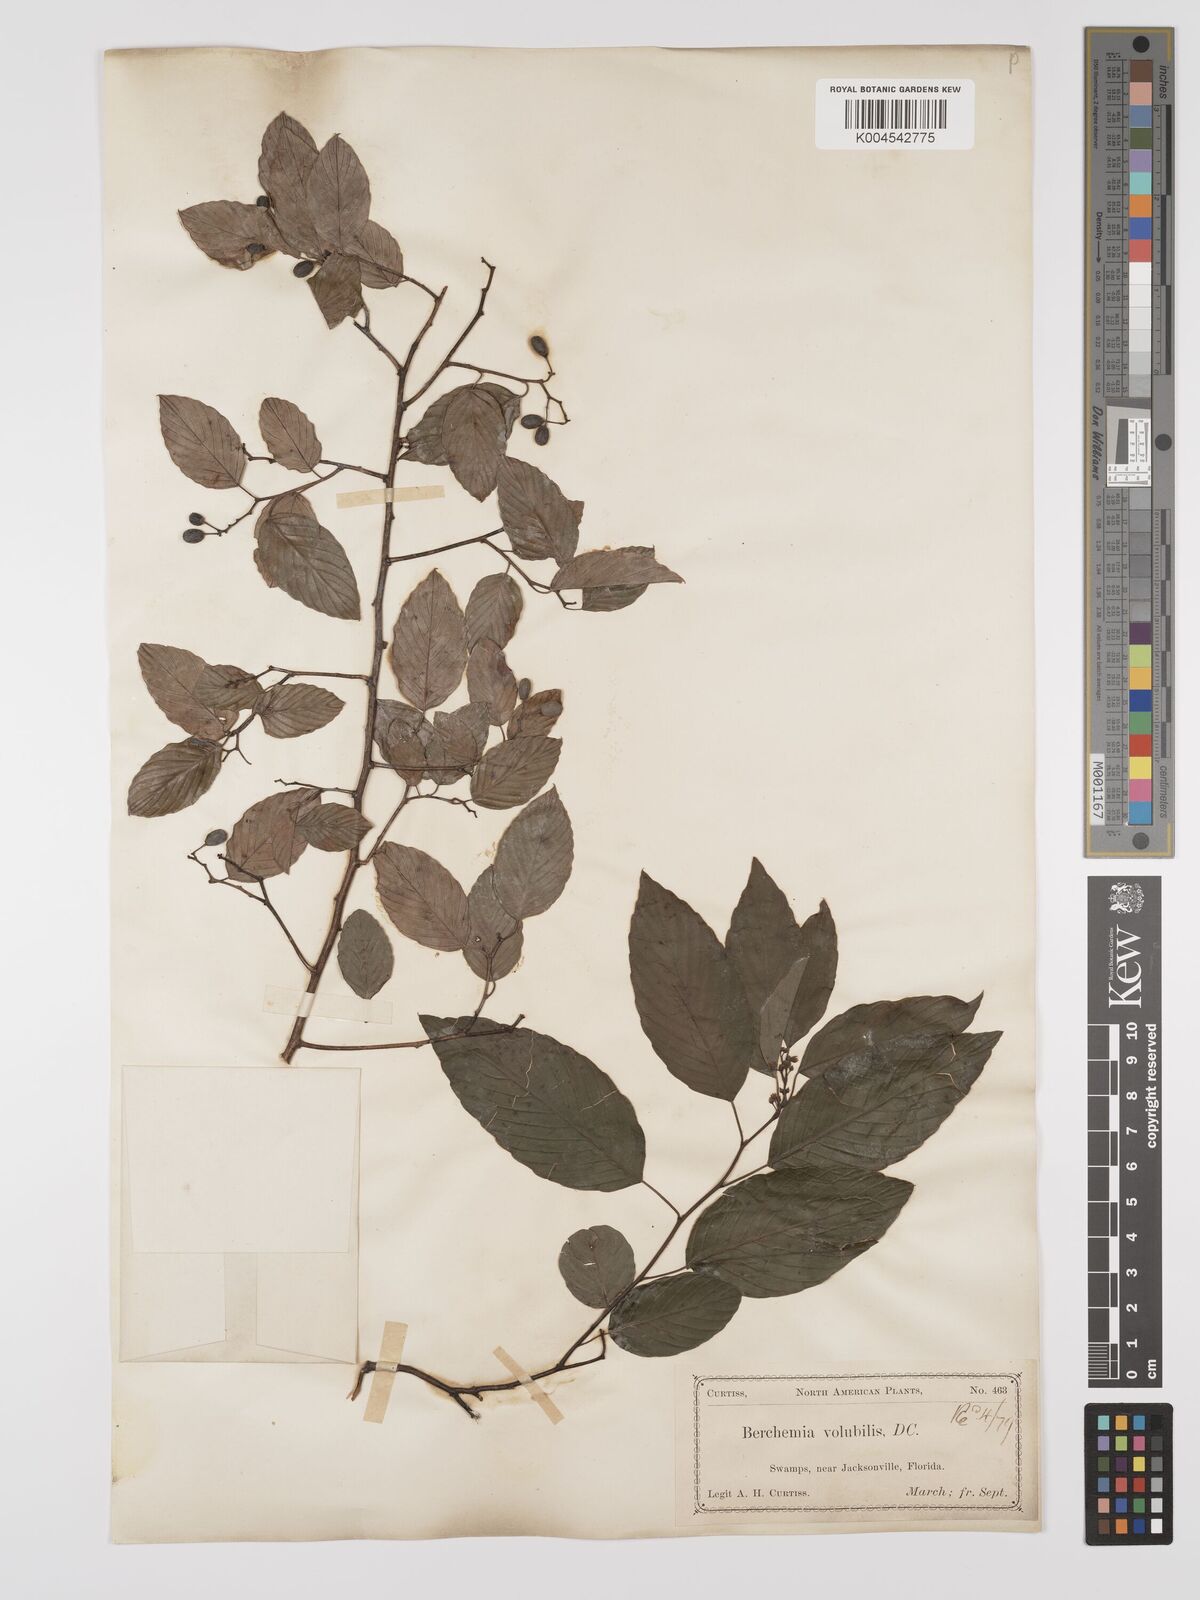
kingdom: Plantae
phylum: Tracheophyta
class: Magnoliopsida
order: Rosales
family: Rhamnaceae
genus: Berchemia
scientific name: Berchemia scandens
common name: Supplejack
